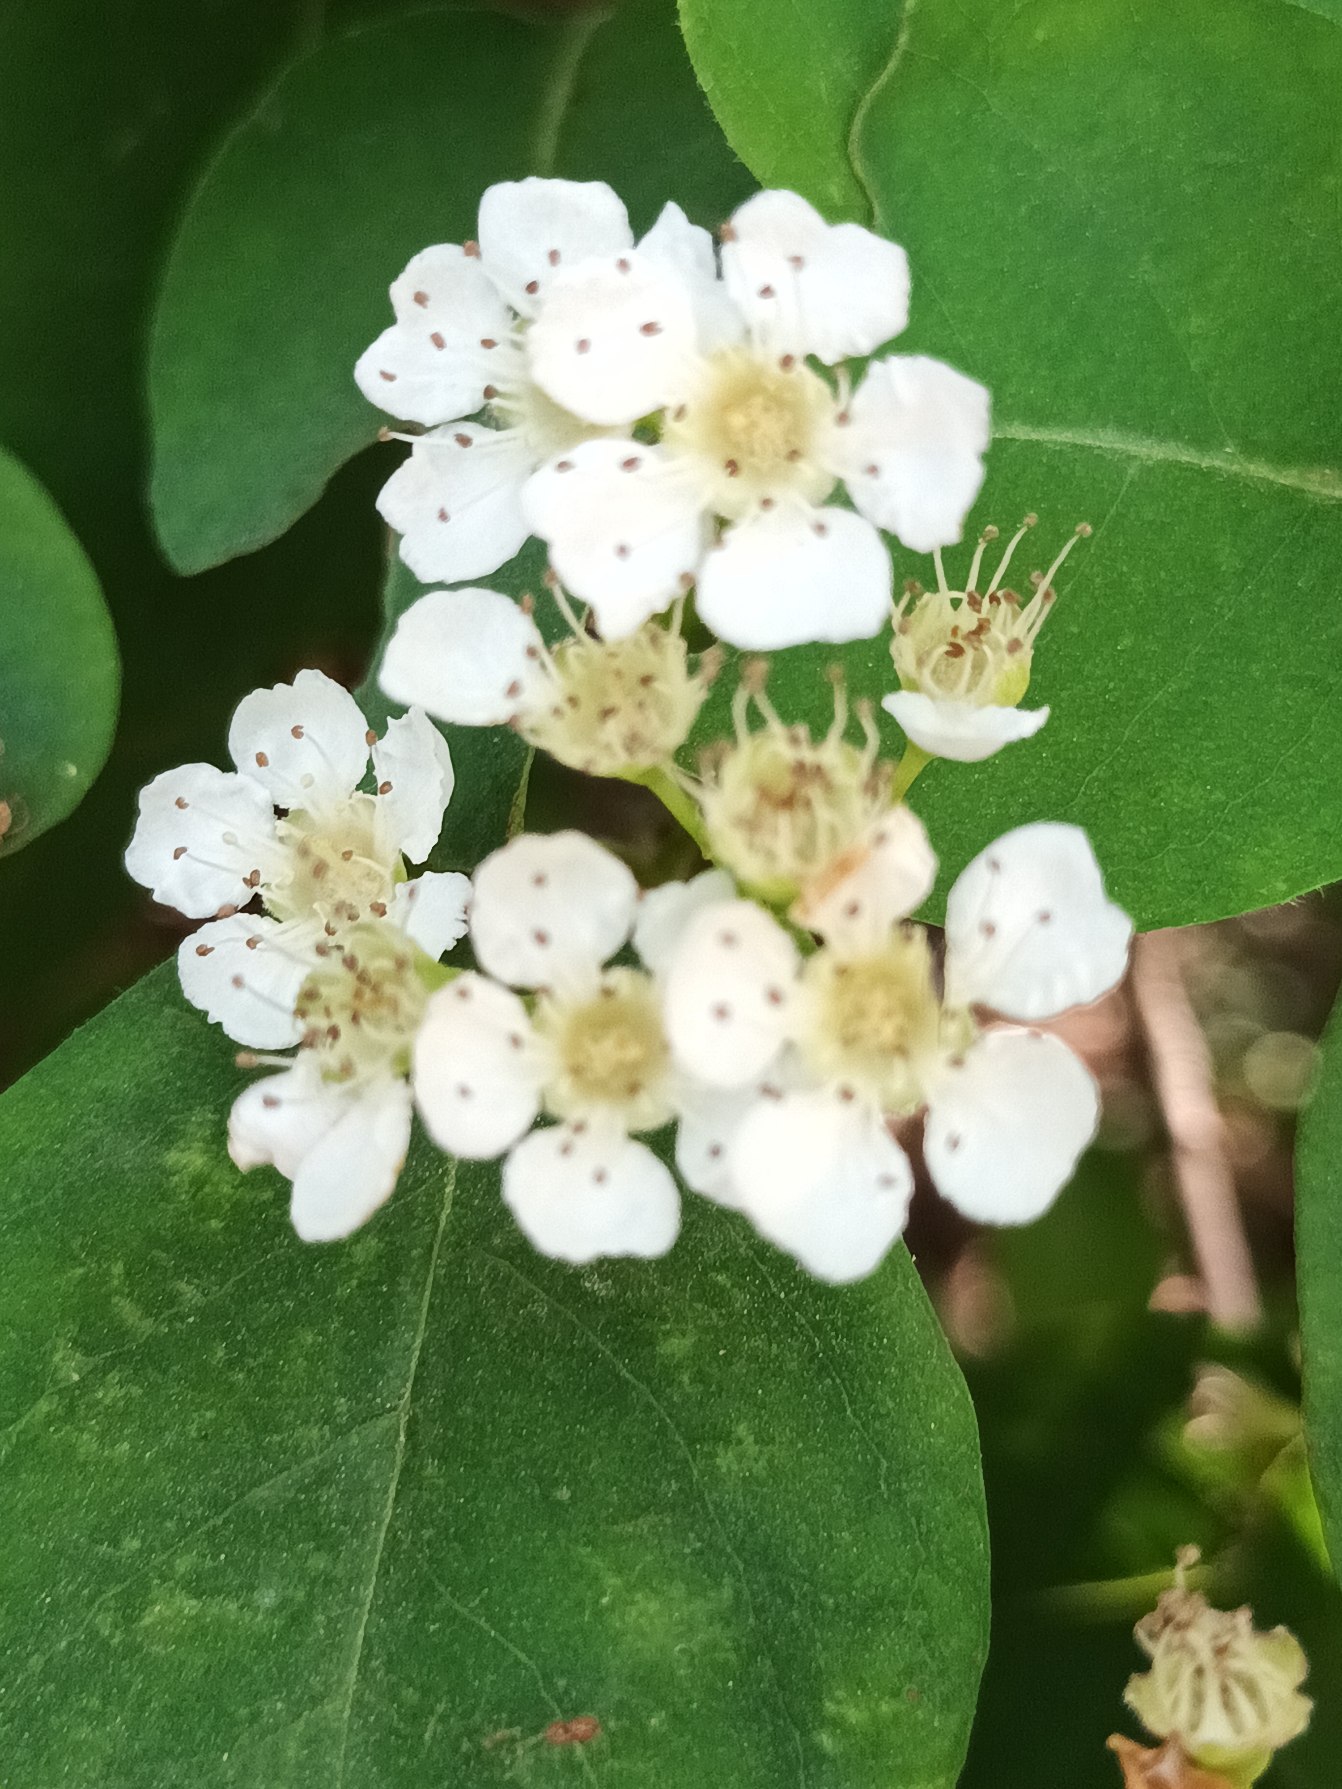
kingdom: Plantae
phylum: Tracheophyta
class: Magnoliopsida
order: Rosales
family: Rosaceae
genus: Cotoneaster
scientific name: Cotoneaster multiflorus
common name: Mangeblomstret dværgmispel
